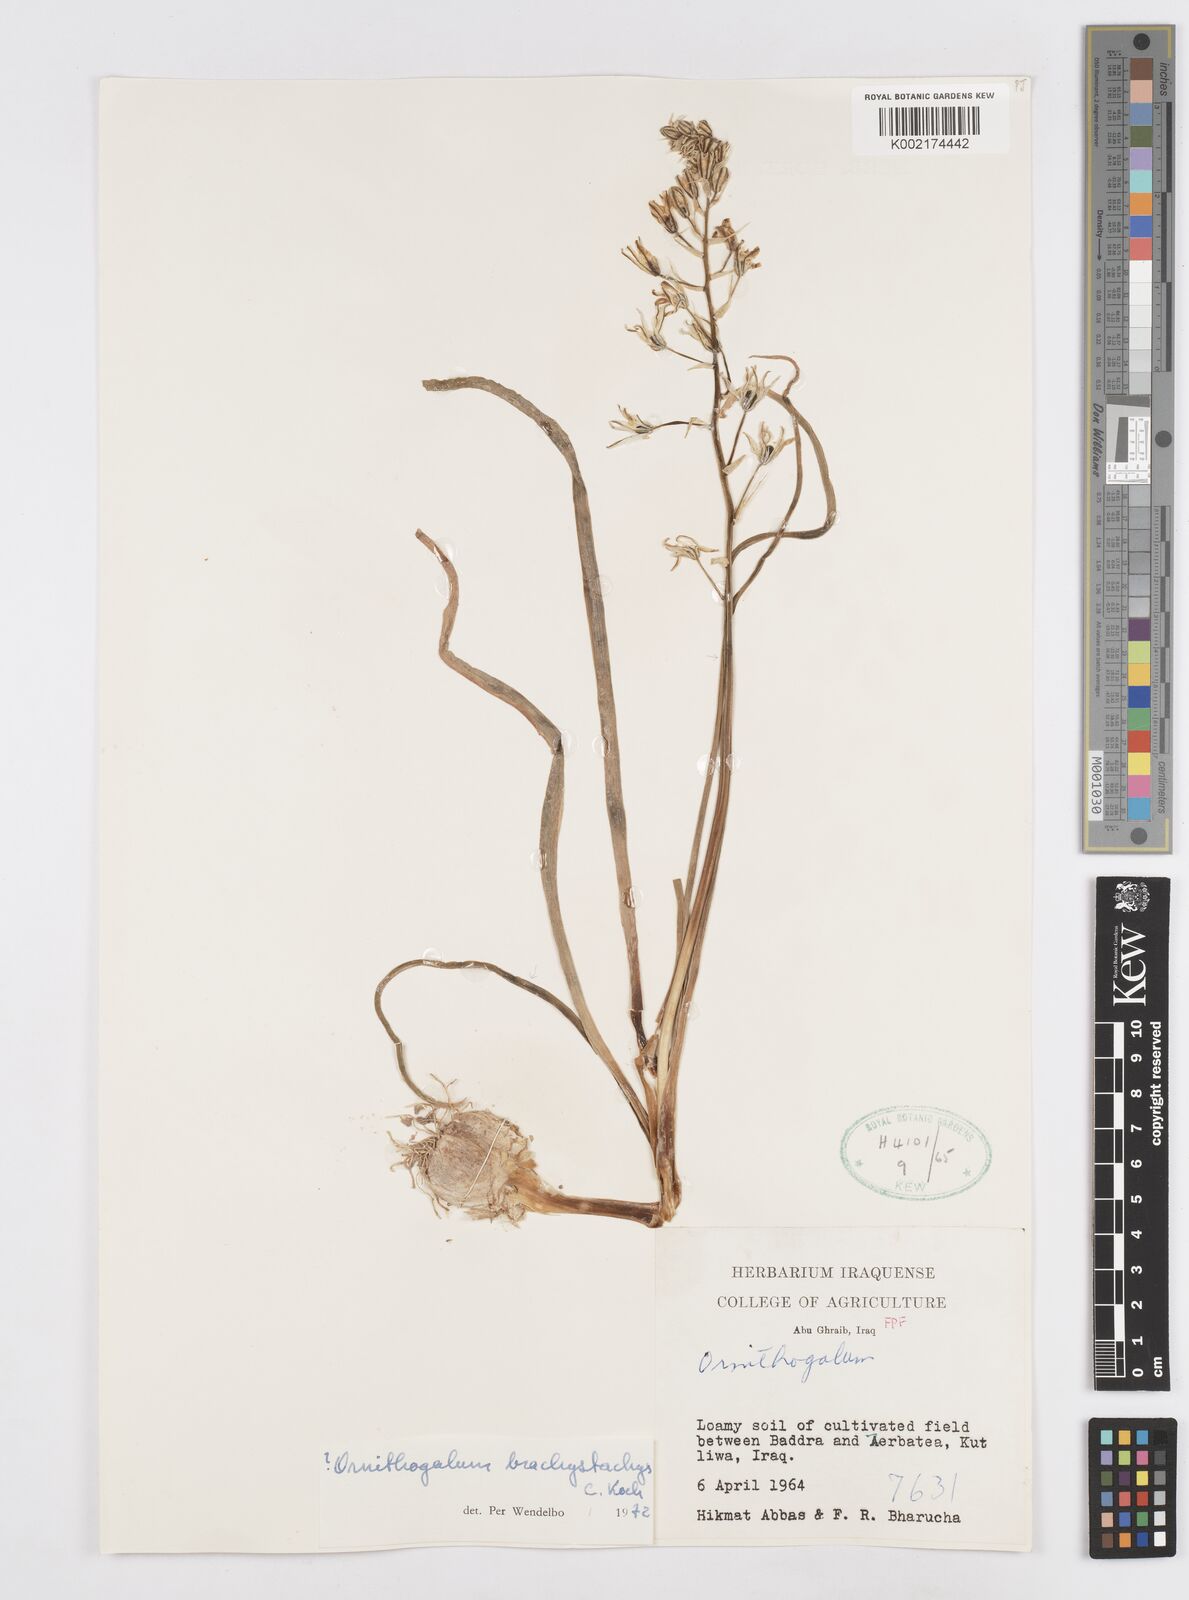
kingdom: Plantae
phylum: Tracheophyta
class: Liliopsida
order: Asparagales
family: Asparagaceae
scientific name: Asparagaceae
